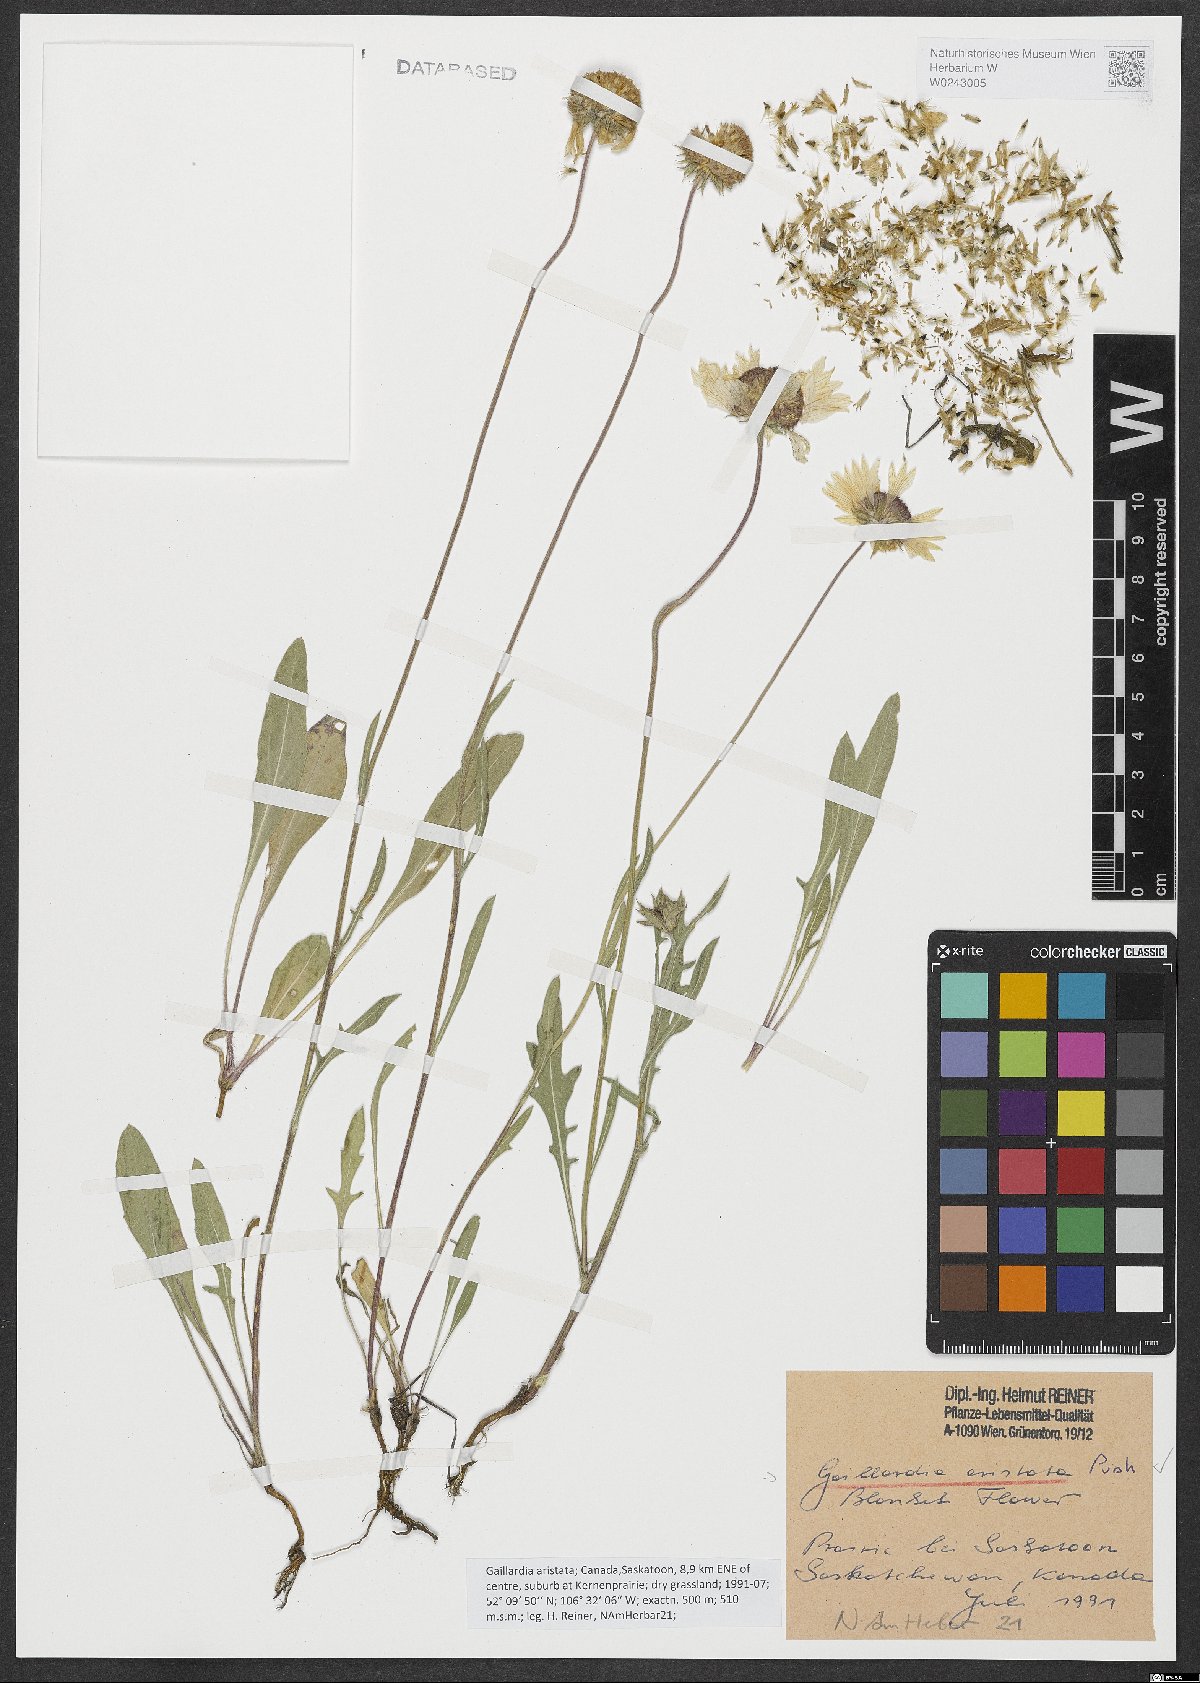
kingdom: Plantae
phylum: Tracheophyta
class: Magnoliopsida
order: Asterales
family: Asteraceae
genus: Gaillardia
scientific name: Gaillardia aristata
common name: Blanket-flower
